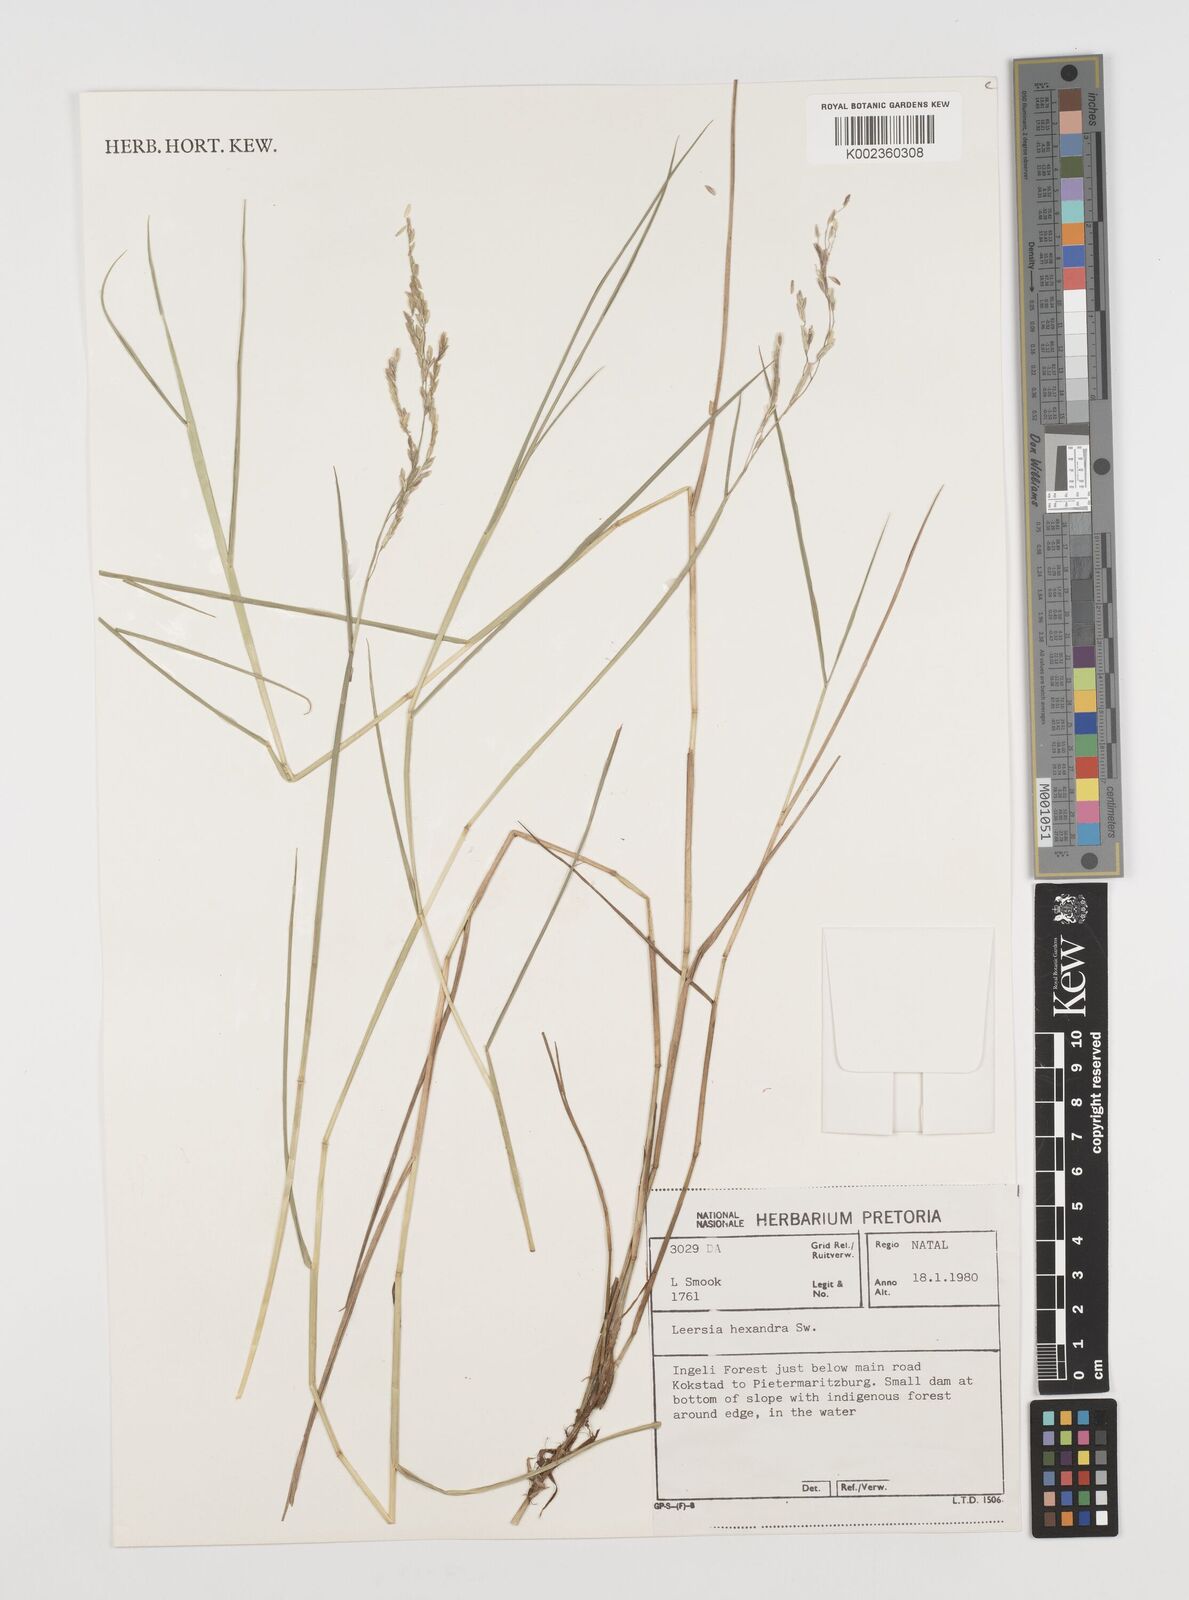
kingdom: Plantae
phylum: Tracheophyta
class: Liliopsida
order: Poales
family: Poaceae
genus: Leersia
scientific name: Leersia hexandra
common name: Southern cut grass
